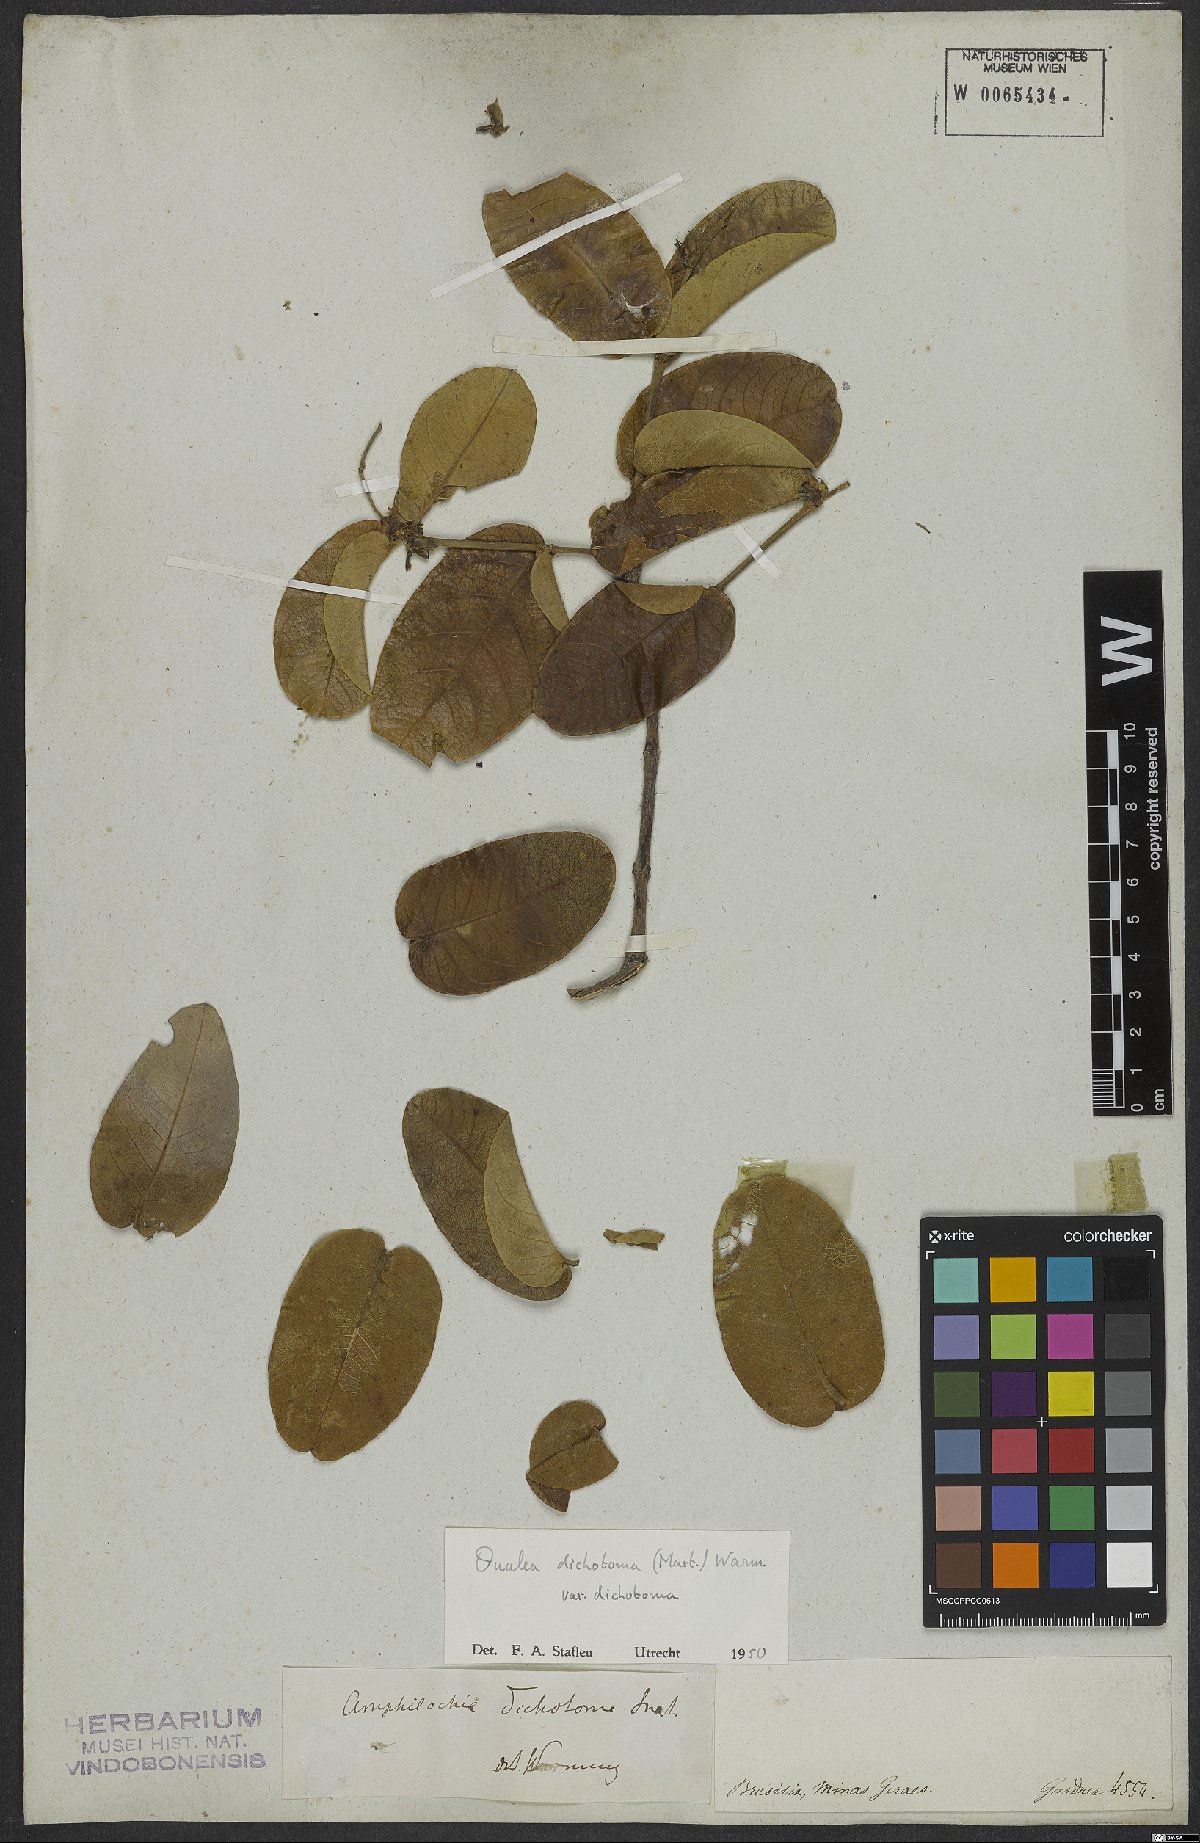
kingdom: Plantae
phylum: Tracheophyta
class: Magnoliopsida
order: Myrtales
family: Vochysiaceae
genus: Qualea
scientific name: Qualea cordata
